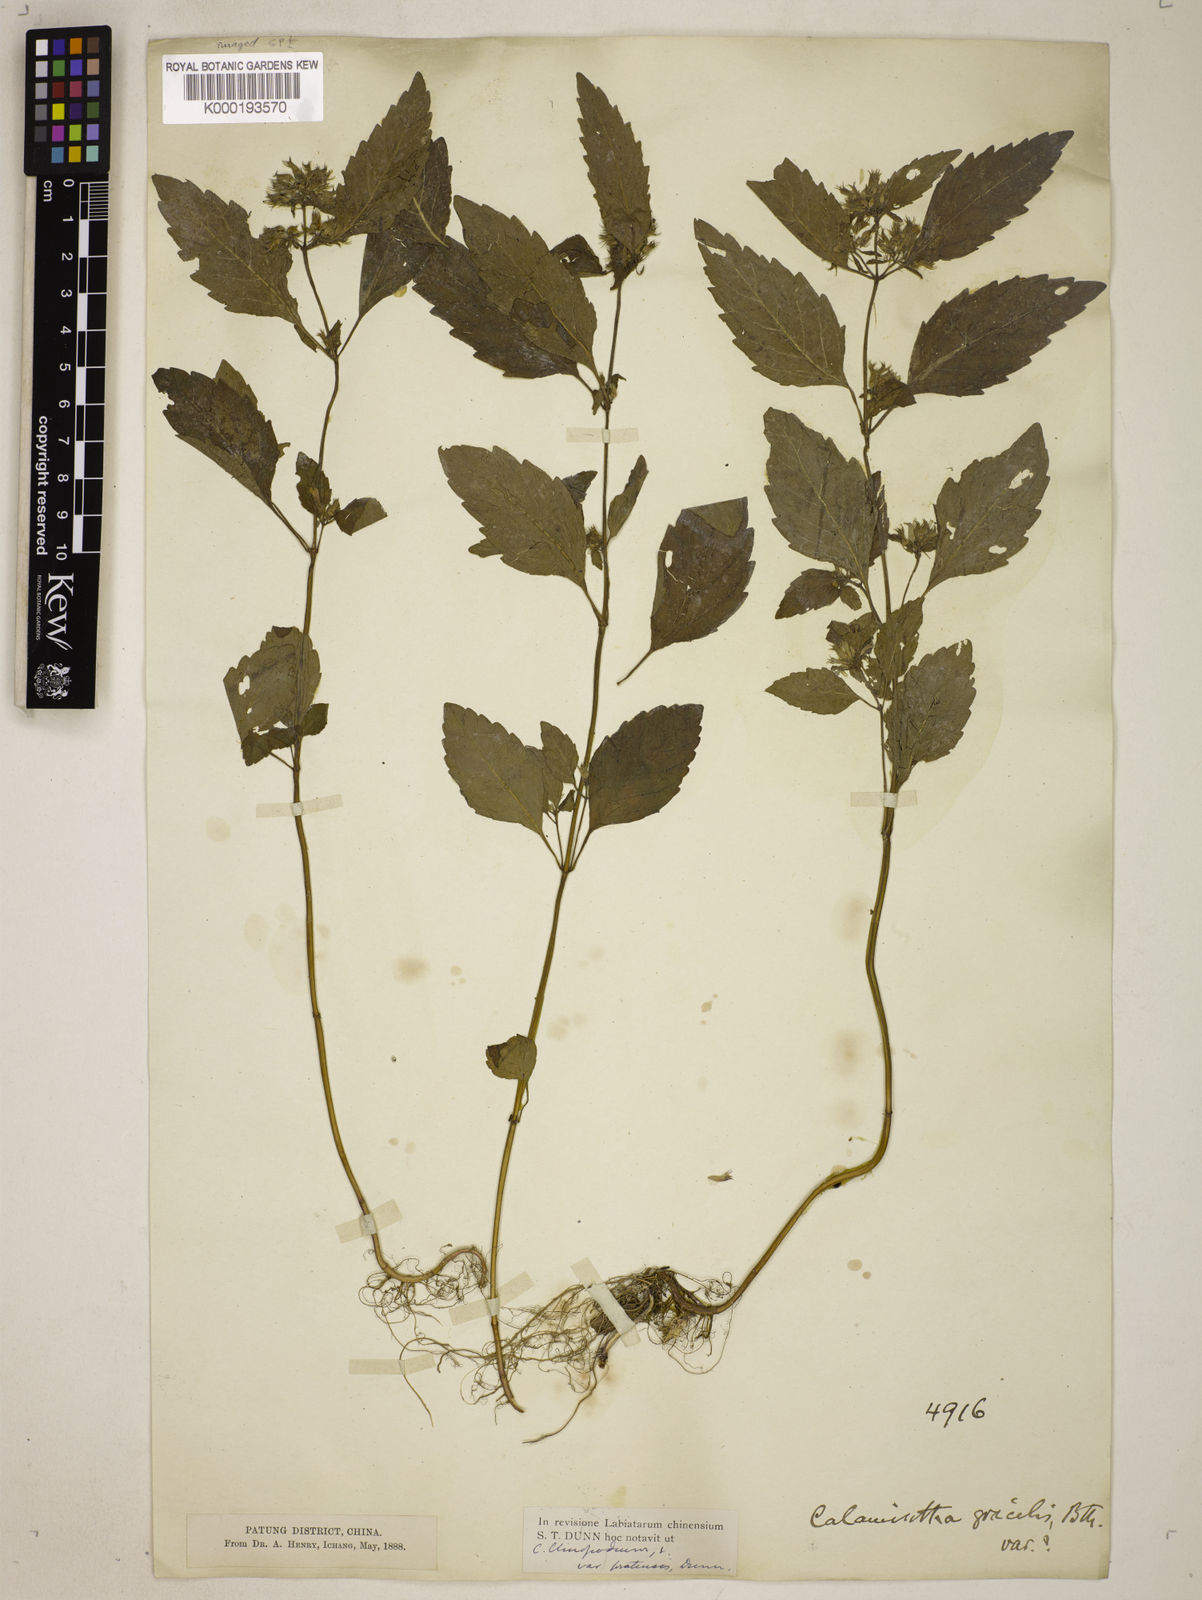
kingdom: Plantae
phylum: Tracheophyta
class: Magnoliopsida
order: Lamiales
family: Lamiaceae
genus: Calamintha
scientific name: Calamintha
